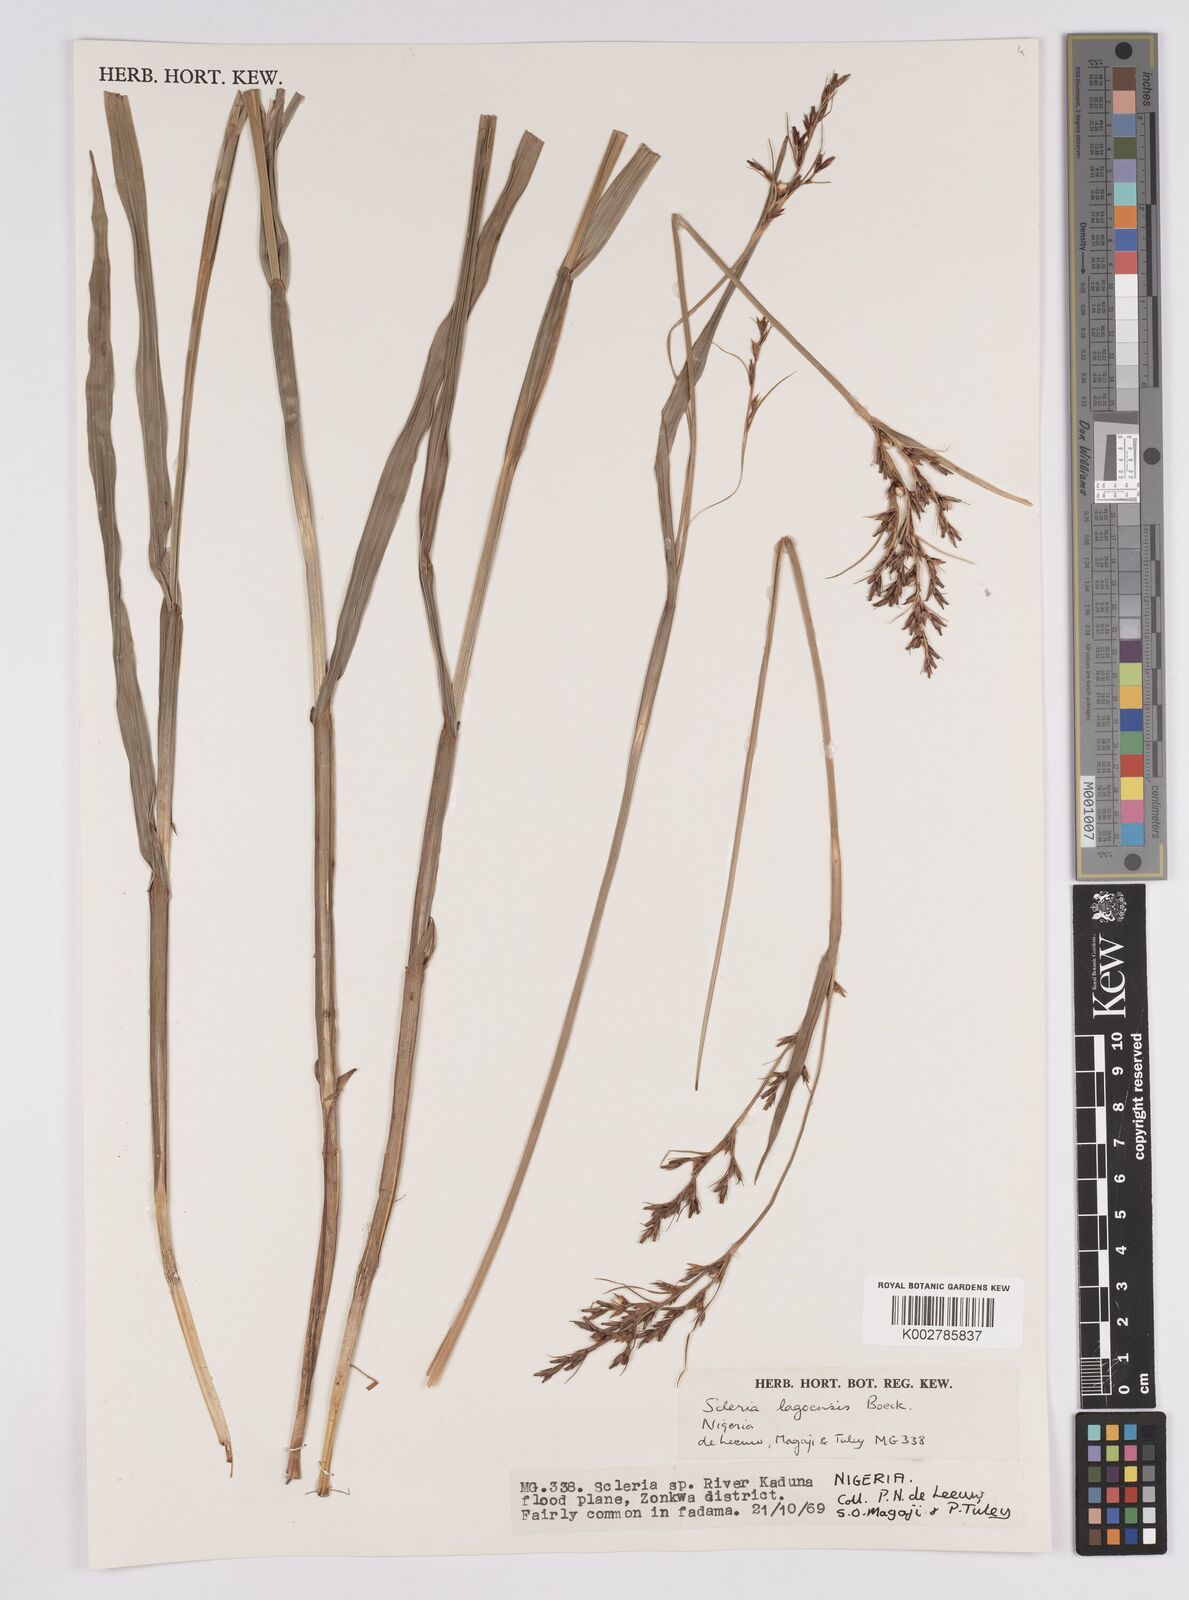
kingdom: Plantae
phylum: Tracheophyta
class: Liliopsida
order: Poales
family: Cyperaceae
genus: Scleria
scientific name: Scleria lagoensis
